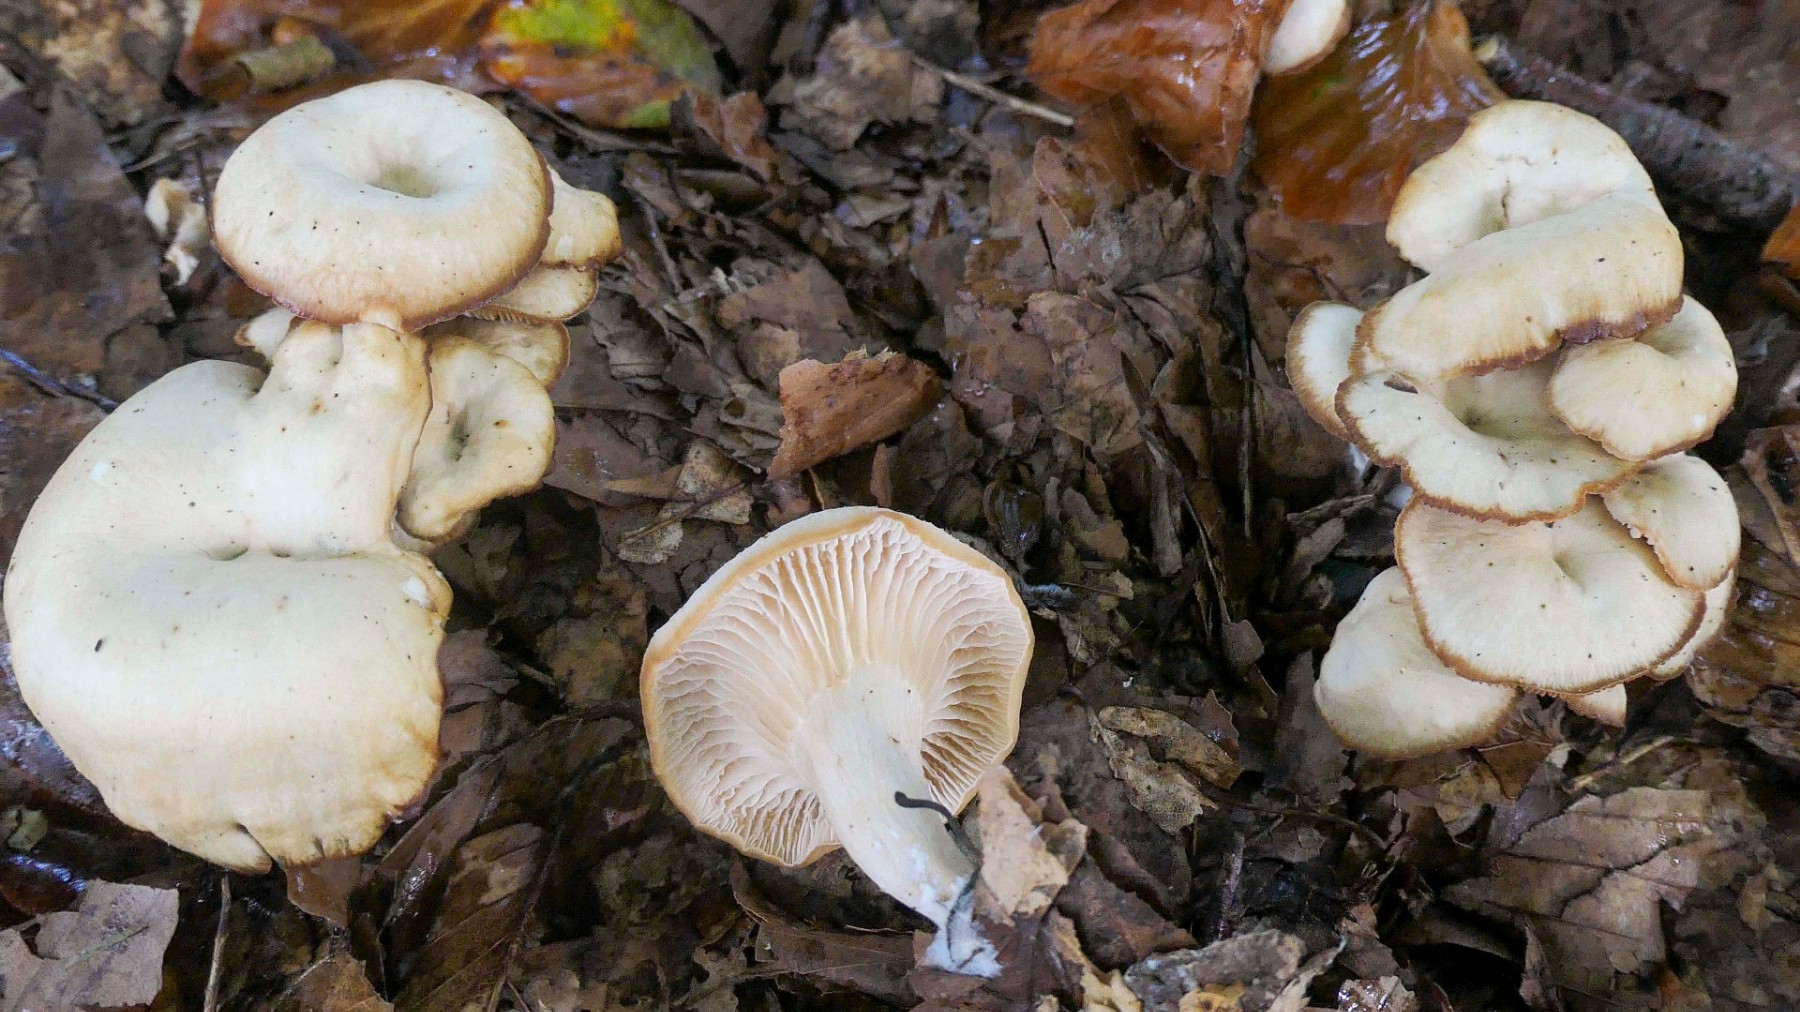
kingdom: Fungi
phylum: Basidiomycota
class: Agaricomycetes
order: Agaricales
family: Tricholomataceae
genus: Clitocybe
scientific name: Clitocybe phaeophthalma
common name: stinkende tragthat
